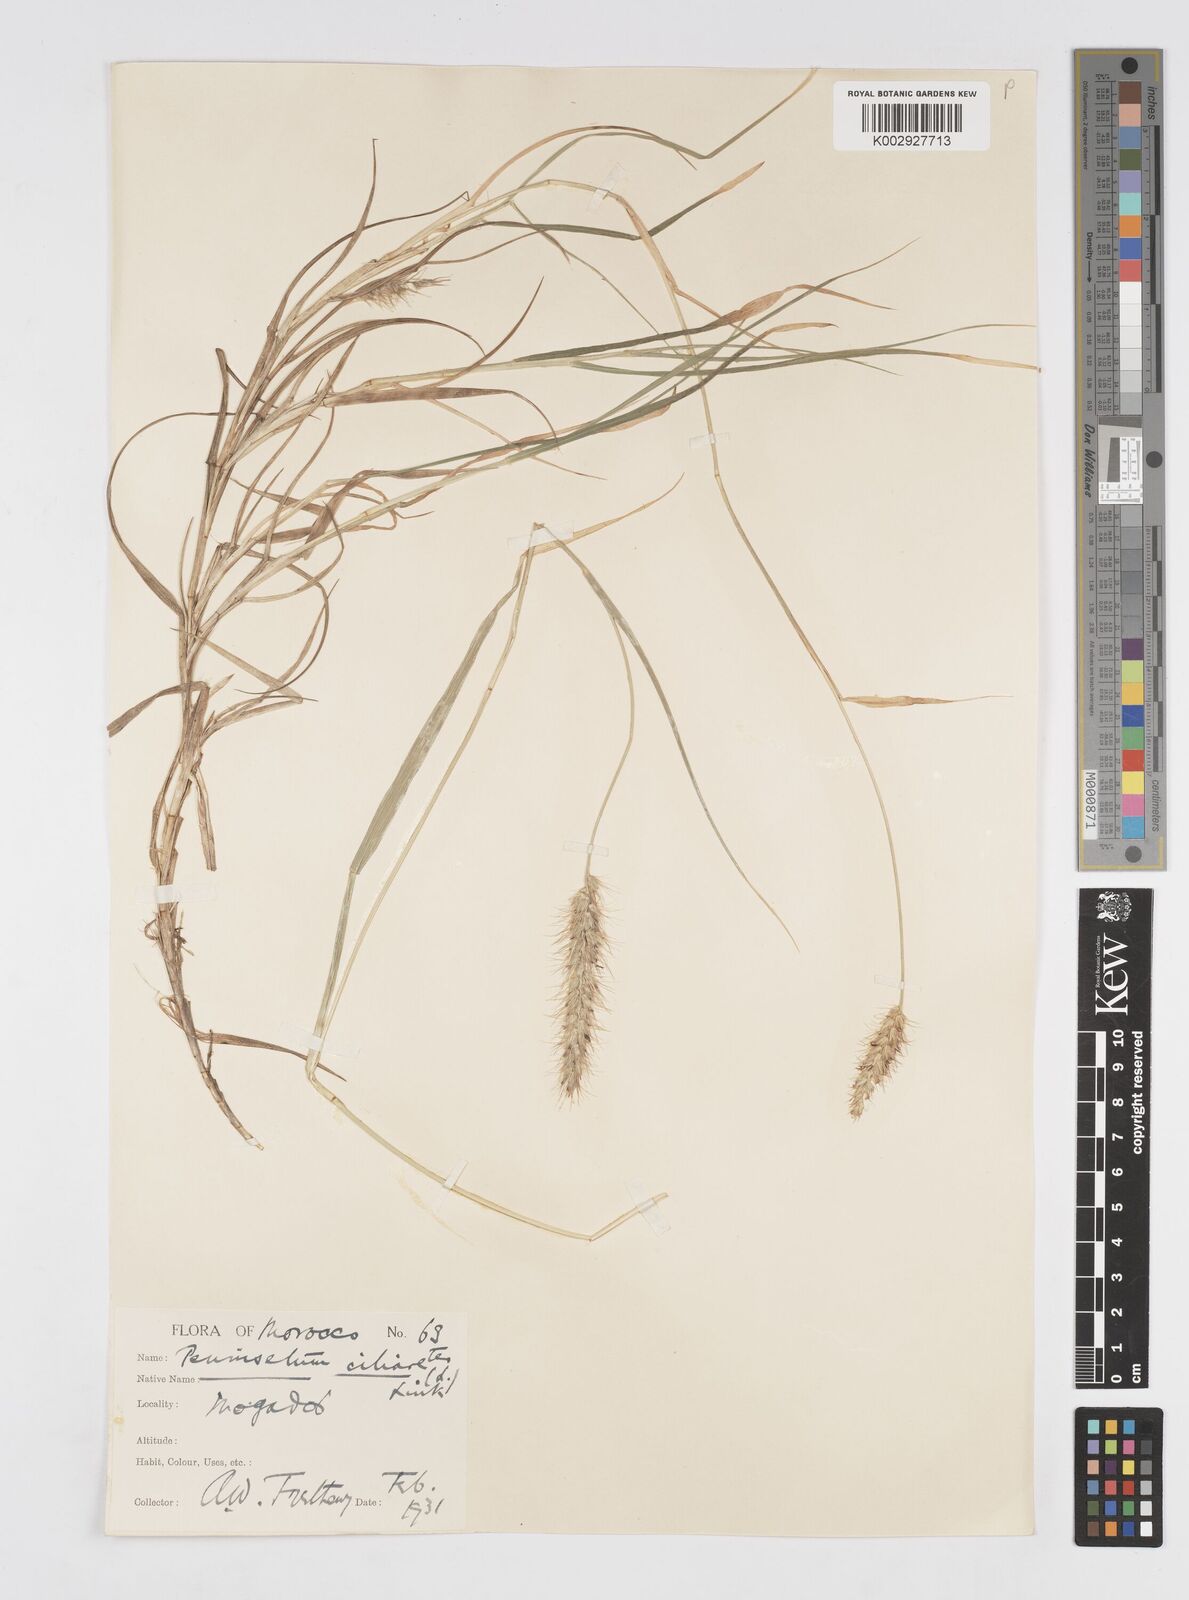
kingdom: Plantae
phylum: Tracheophyta
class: Liliopsida
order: Poales
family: Poaceae
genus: Cenchrus
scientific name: Cenchrus ciliaris
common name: Buffelgrass
